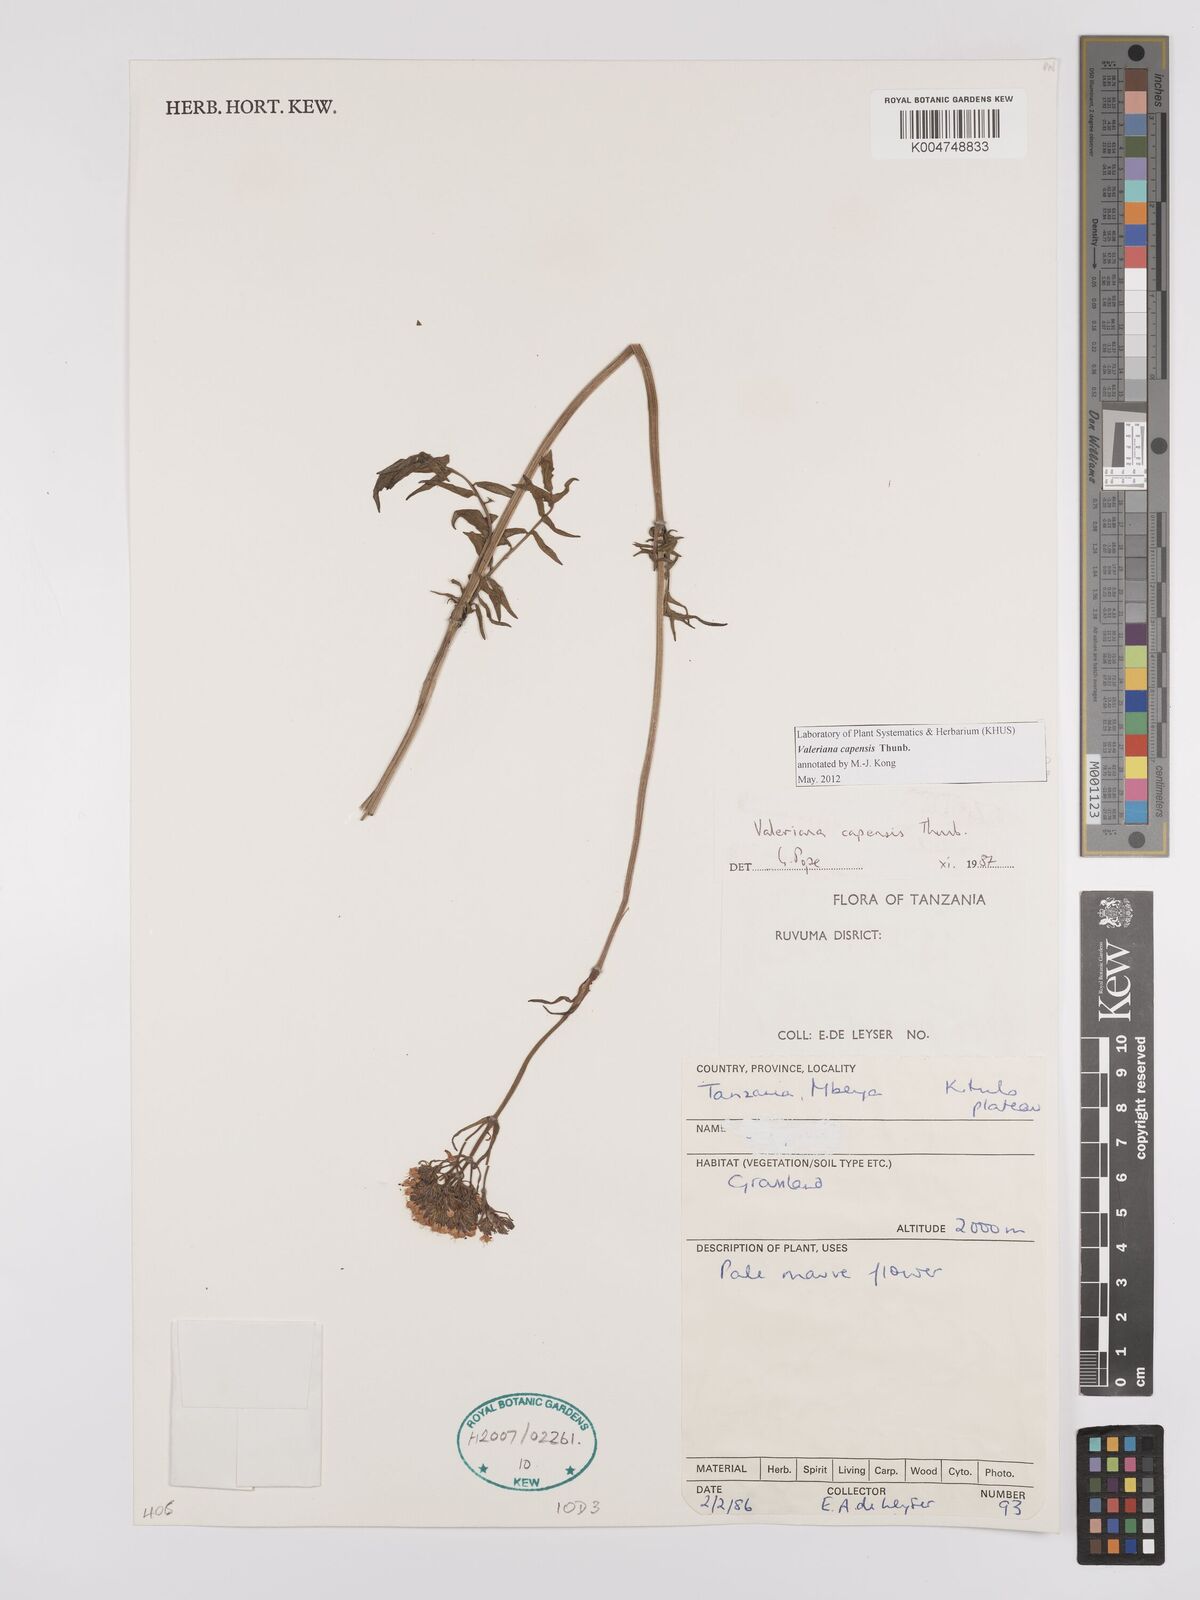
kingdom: Plantae
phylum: Tracheophyta
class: Magnoliopsida
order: Dipsacales
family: Caprifoliaceae
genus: Valeriana
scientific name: Valeriana capensis
